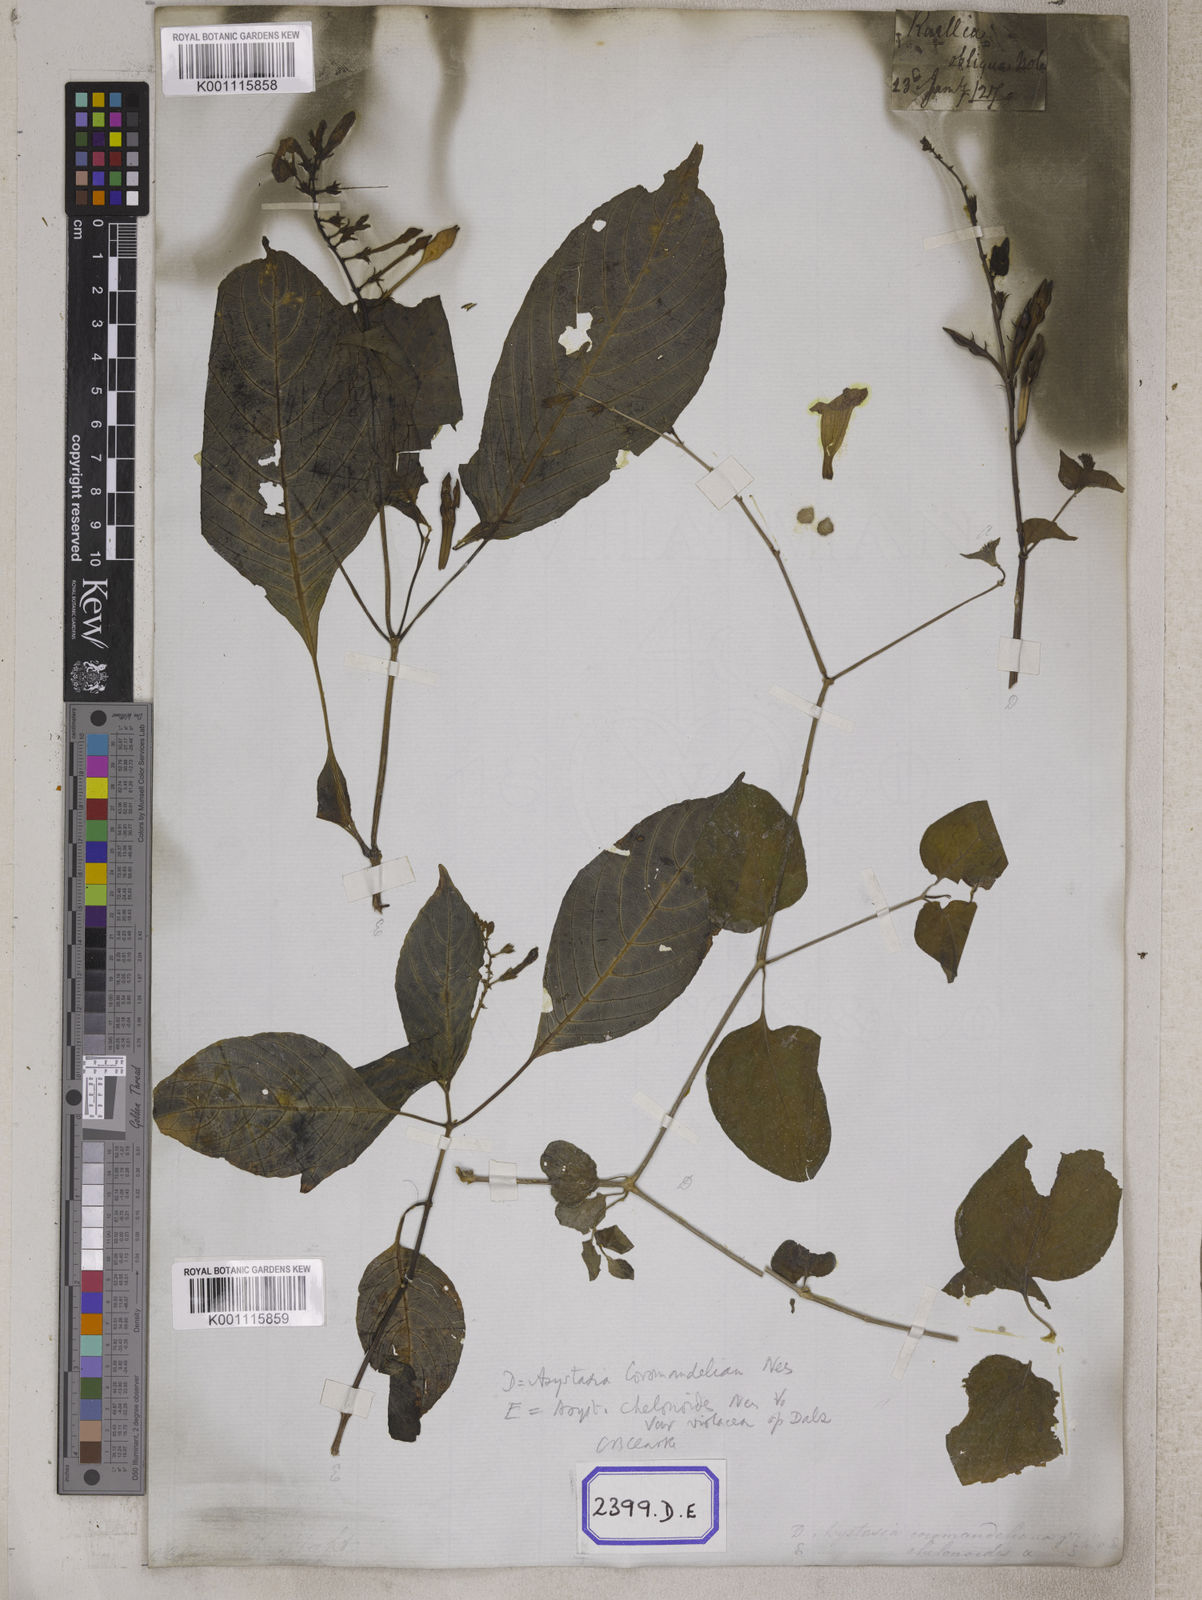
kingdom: Plantae
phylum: Tracheophyta
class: Magnoliopsida
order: Lamiales
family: Acanthaceae
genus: Asystasia
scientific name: Asystasia gangetica
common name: Chinese violet
